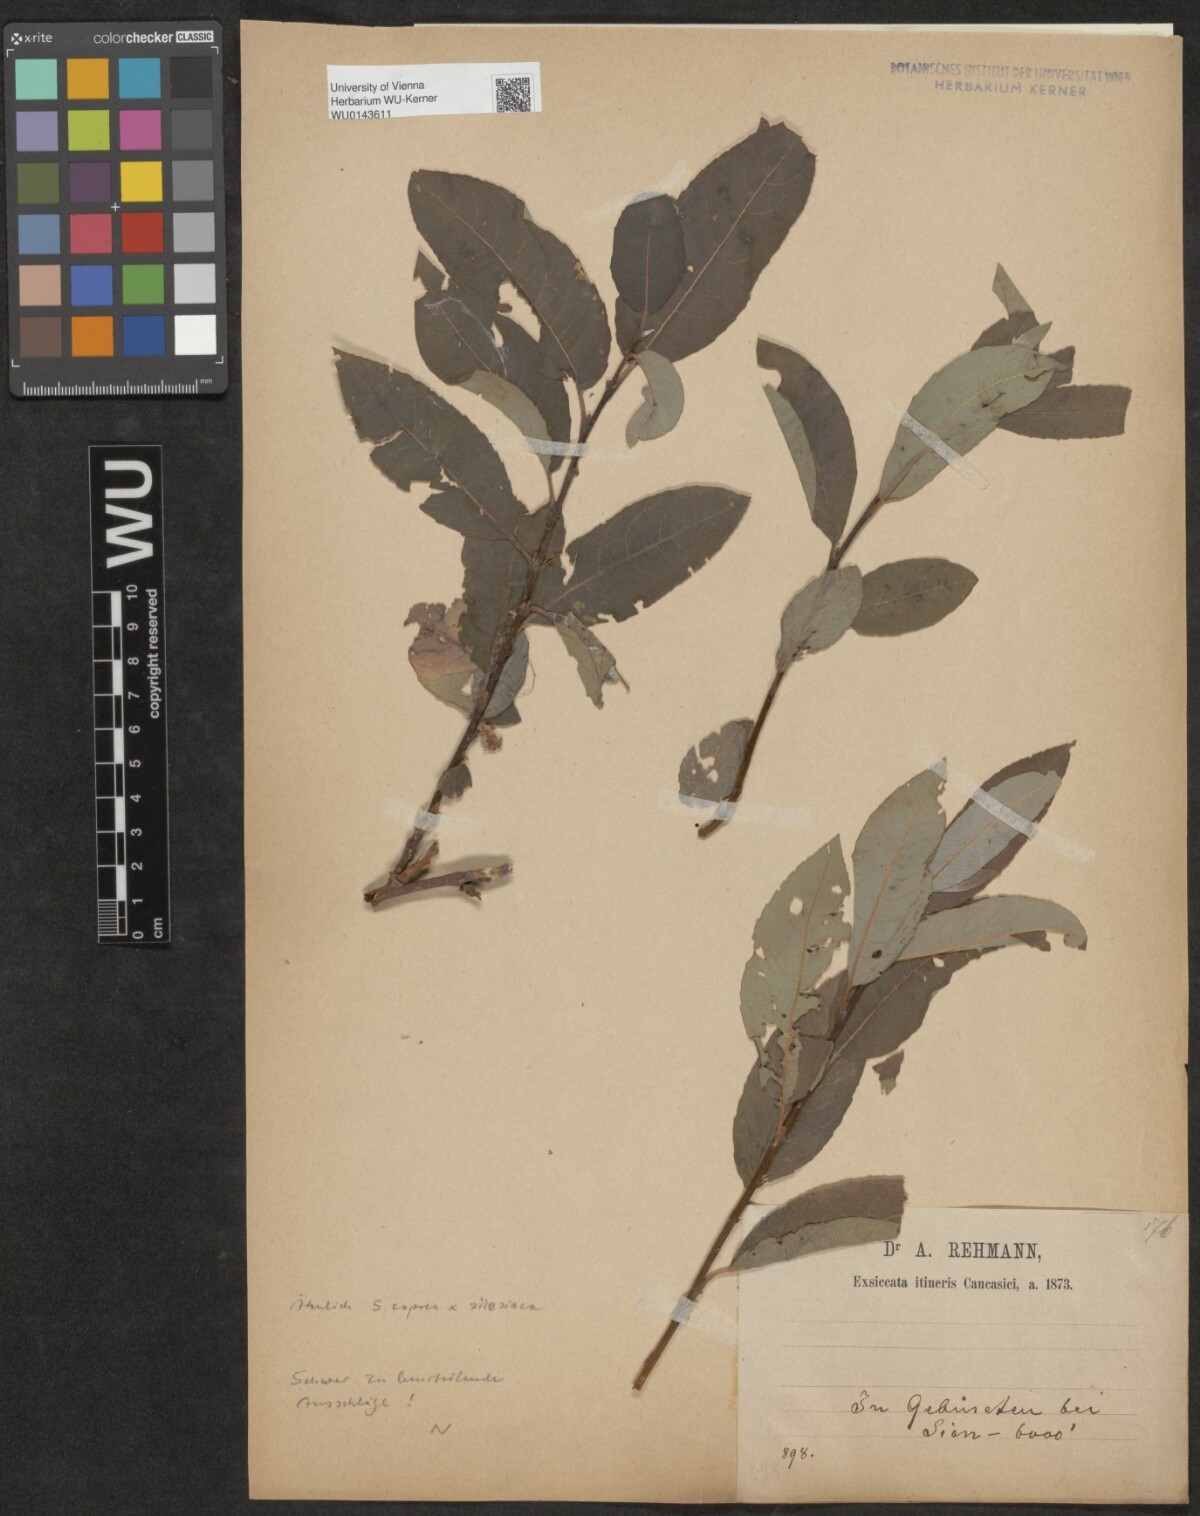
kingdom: Plantae
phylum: Tracheophyta
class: Magnoliopsida
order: Malpighiales
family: Salicaceae
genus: Salix
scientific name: Salix
